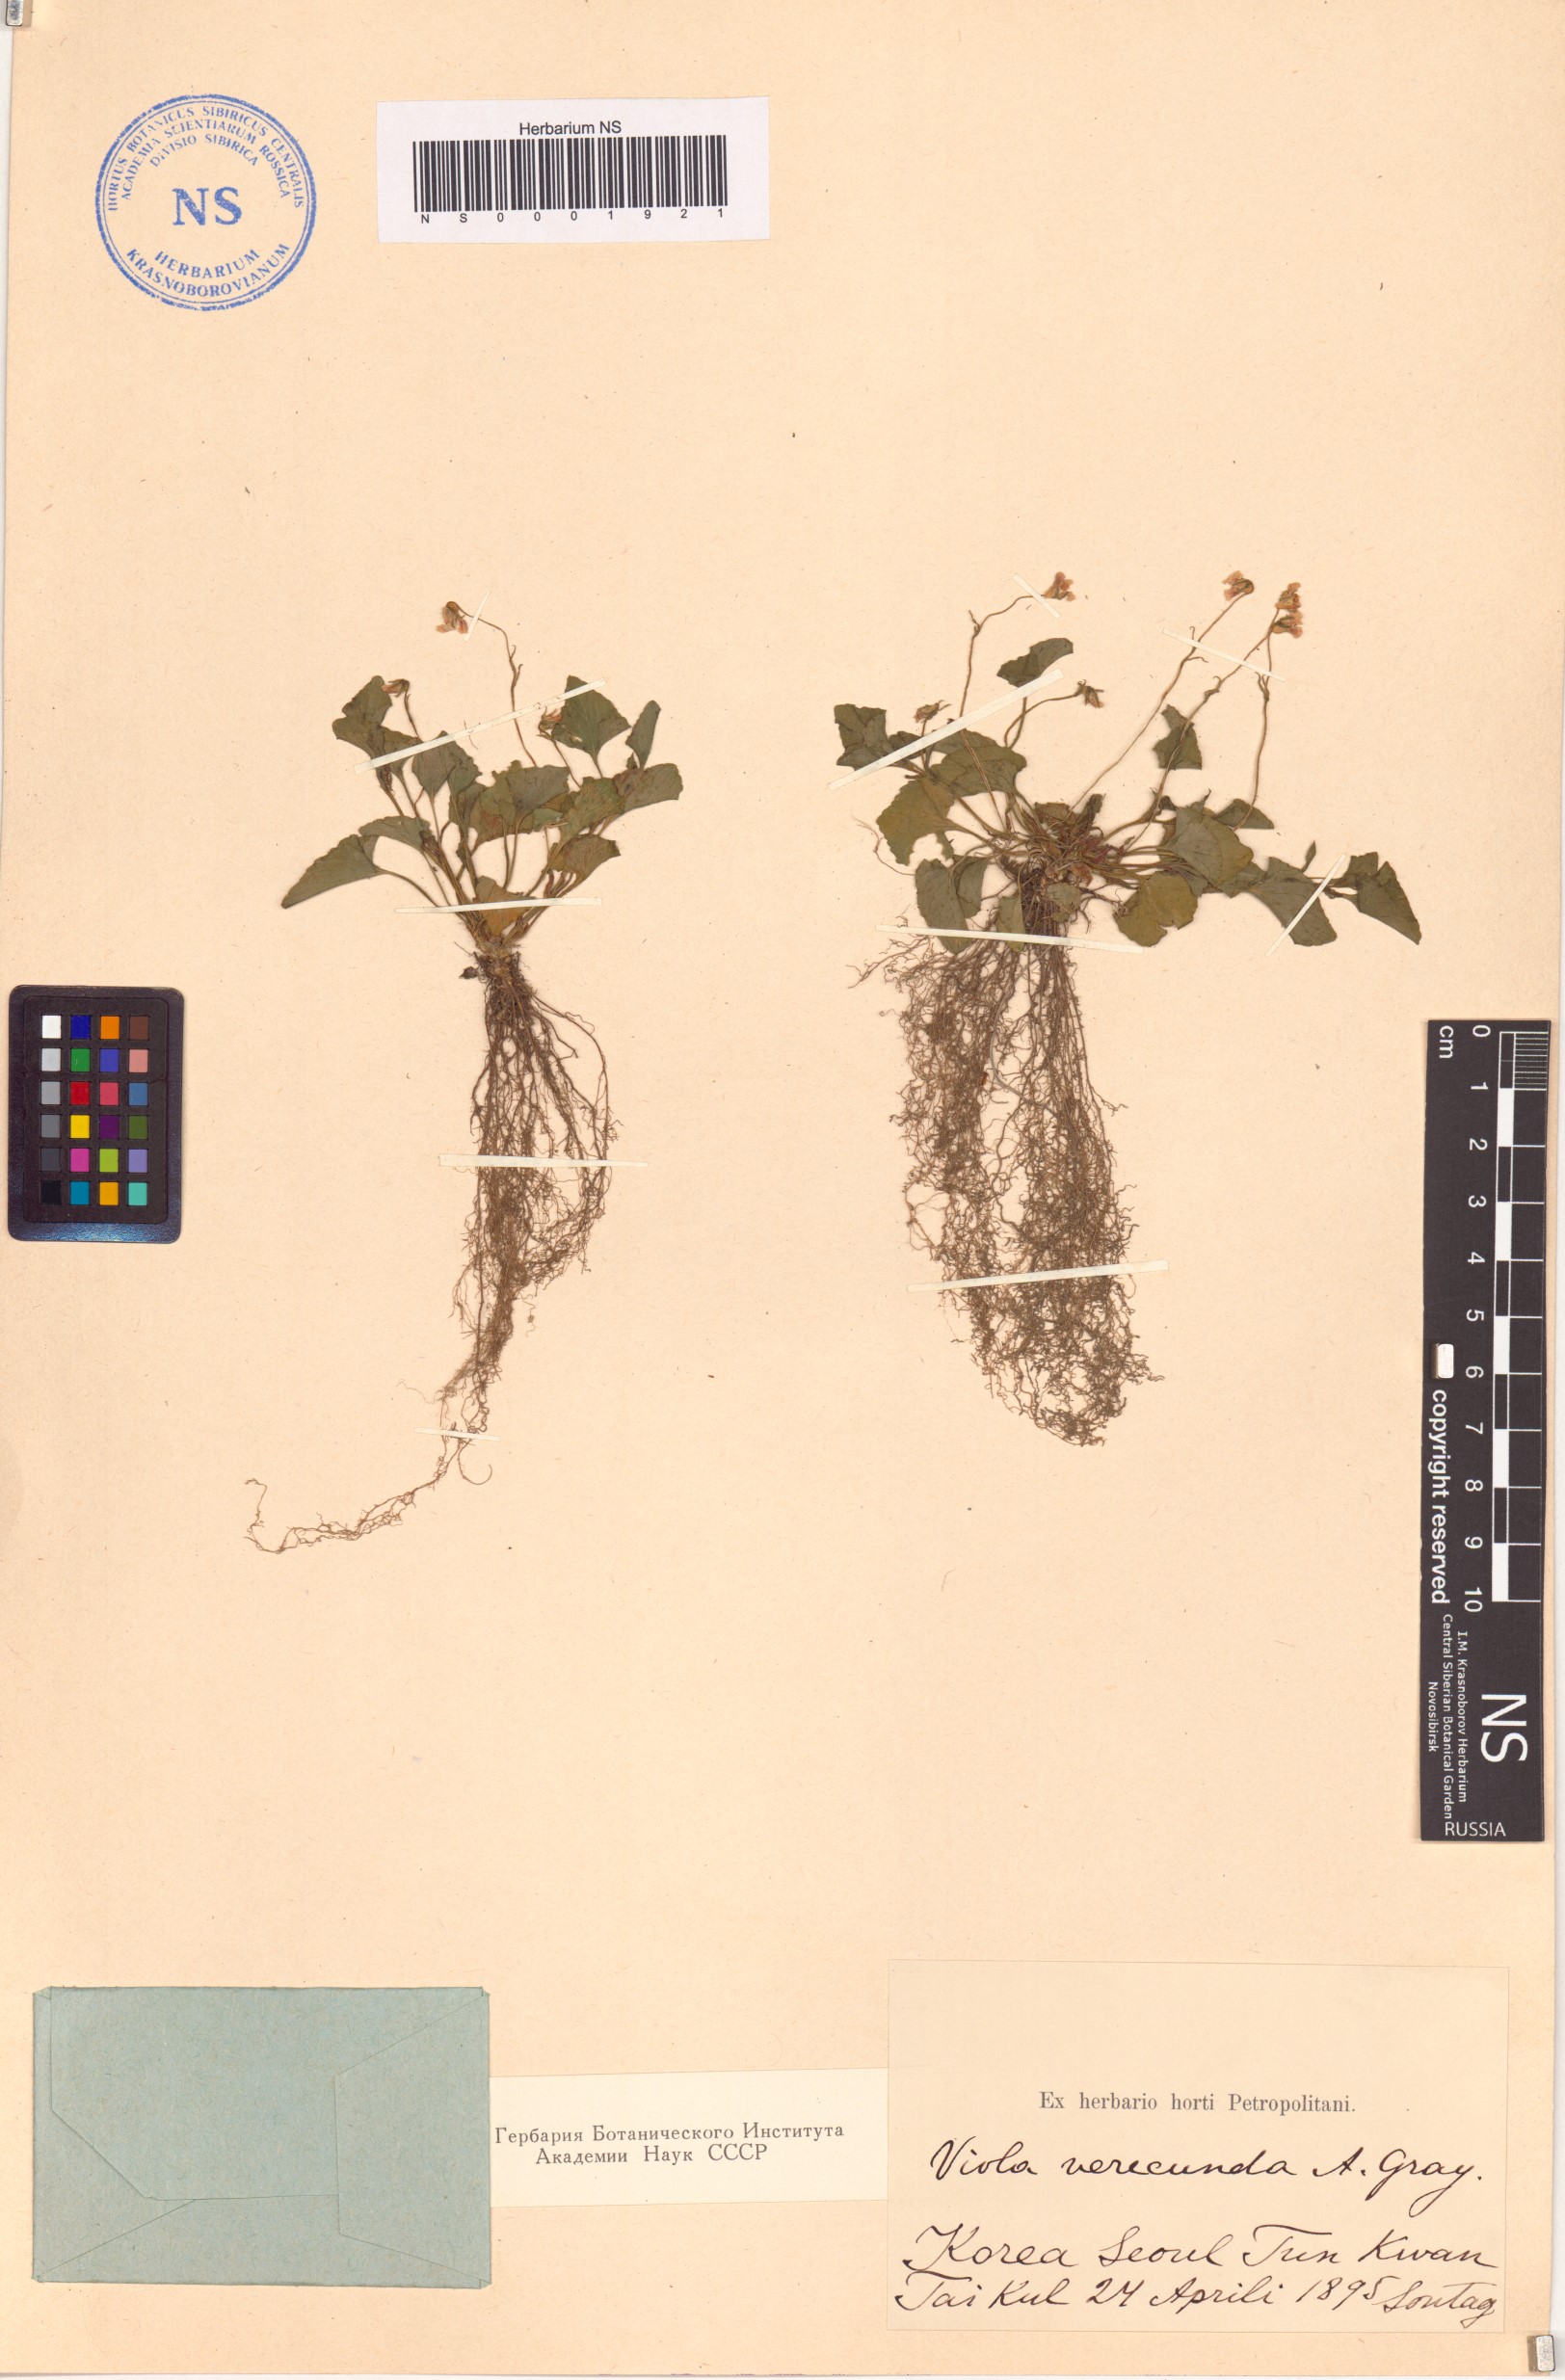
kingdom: Plantae
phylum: Tracheophyta
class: Magnoliopsida
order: Malpighiales
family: Violaceae
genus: Viola
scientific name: Viola hamiltoniana
